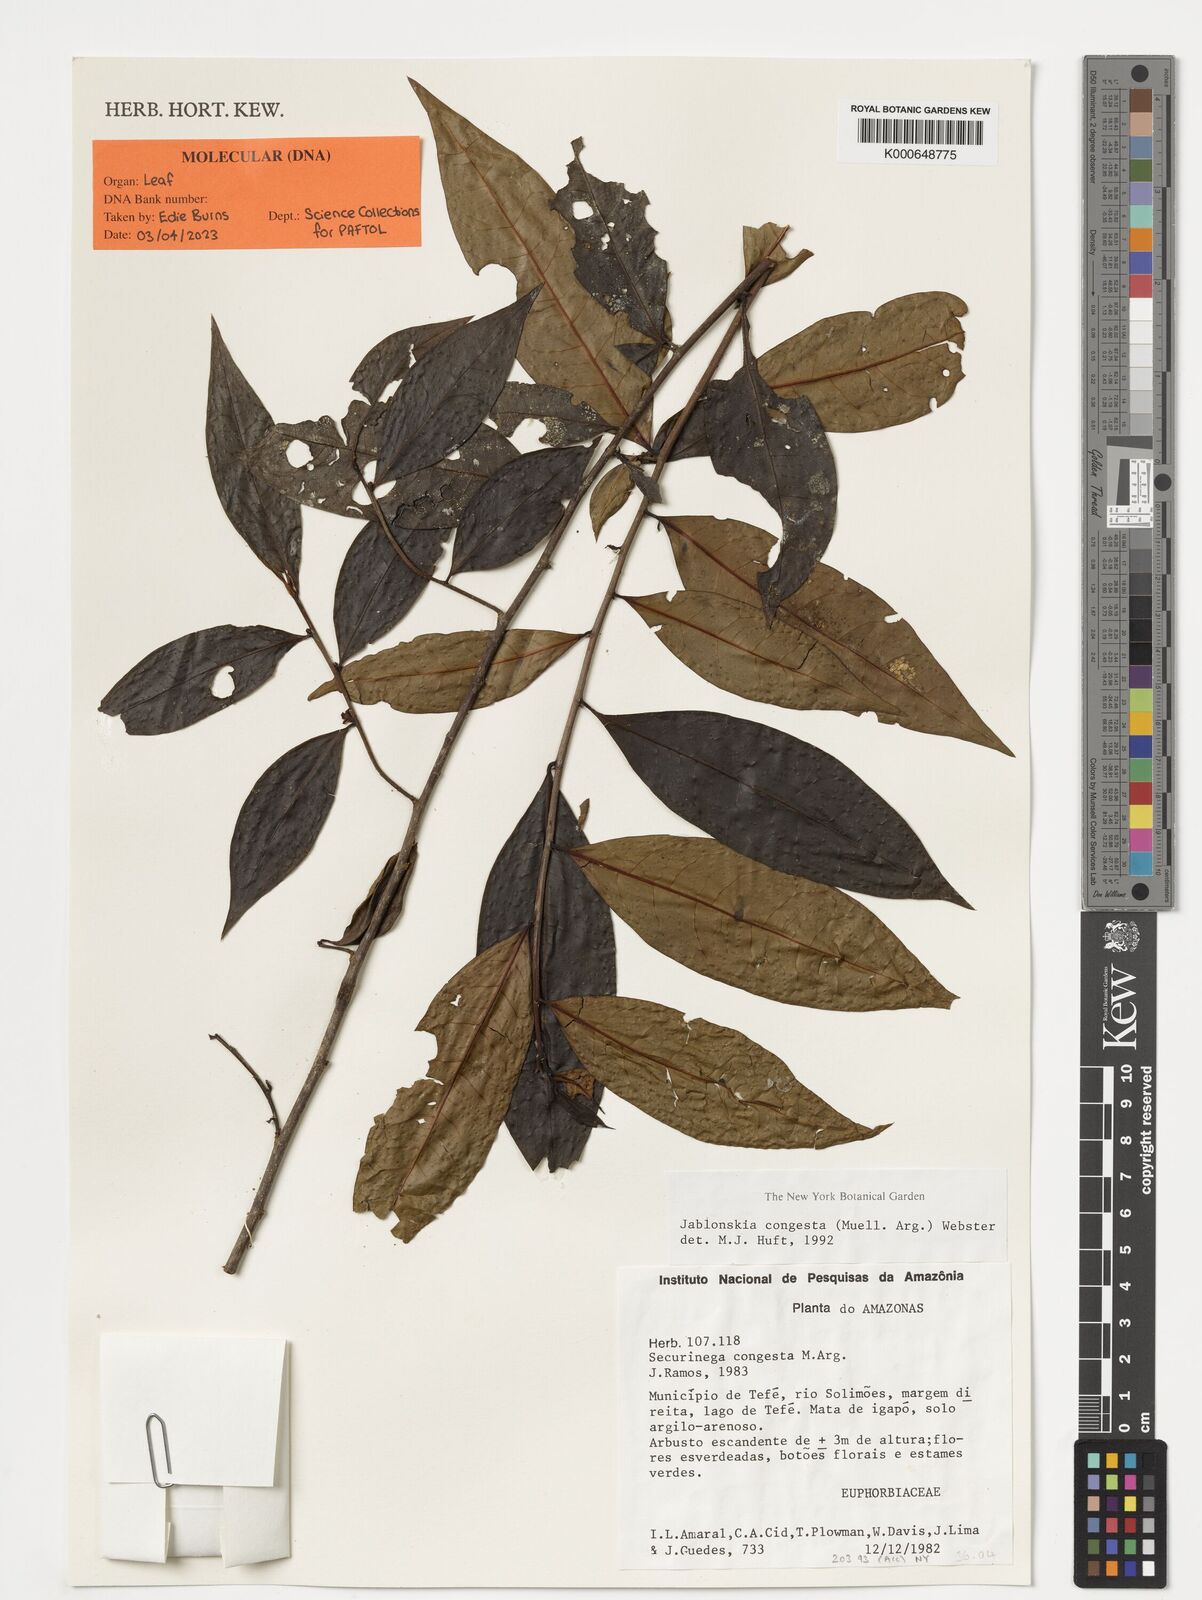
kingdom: Plantae
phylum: Tracheophyta
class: Magnoliopsida
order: Malpighiales
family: Phyllanthaceae
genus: Jablonskia
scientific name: Jablonskia congesta
